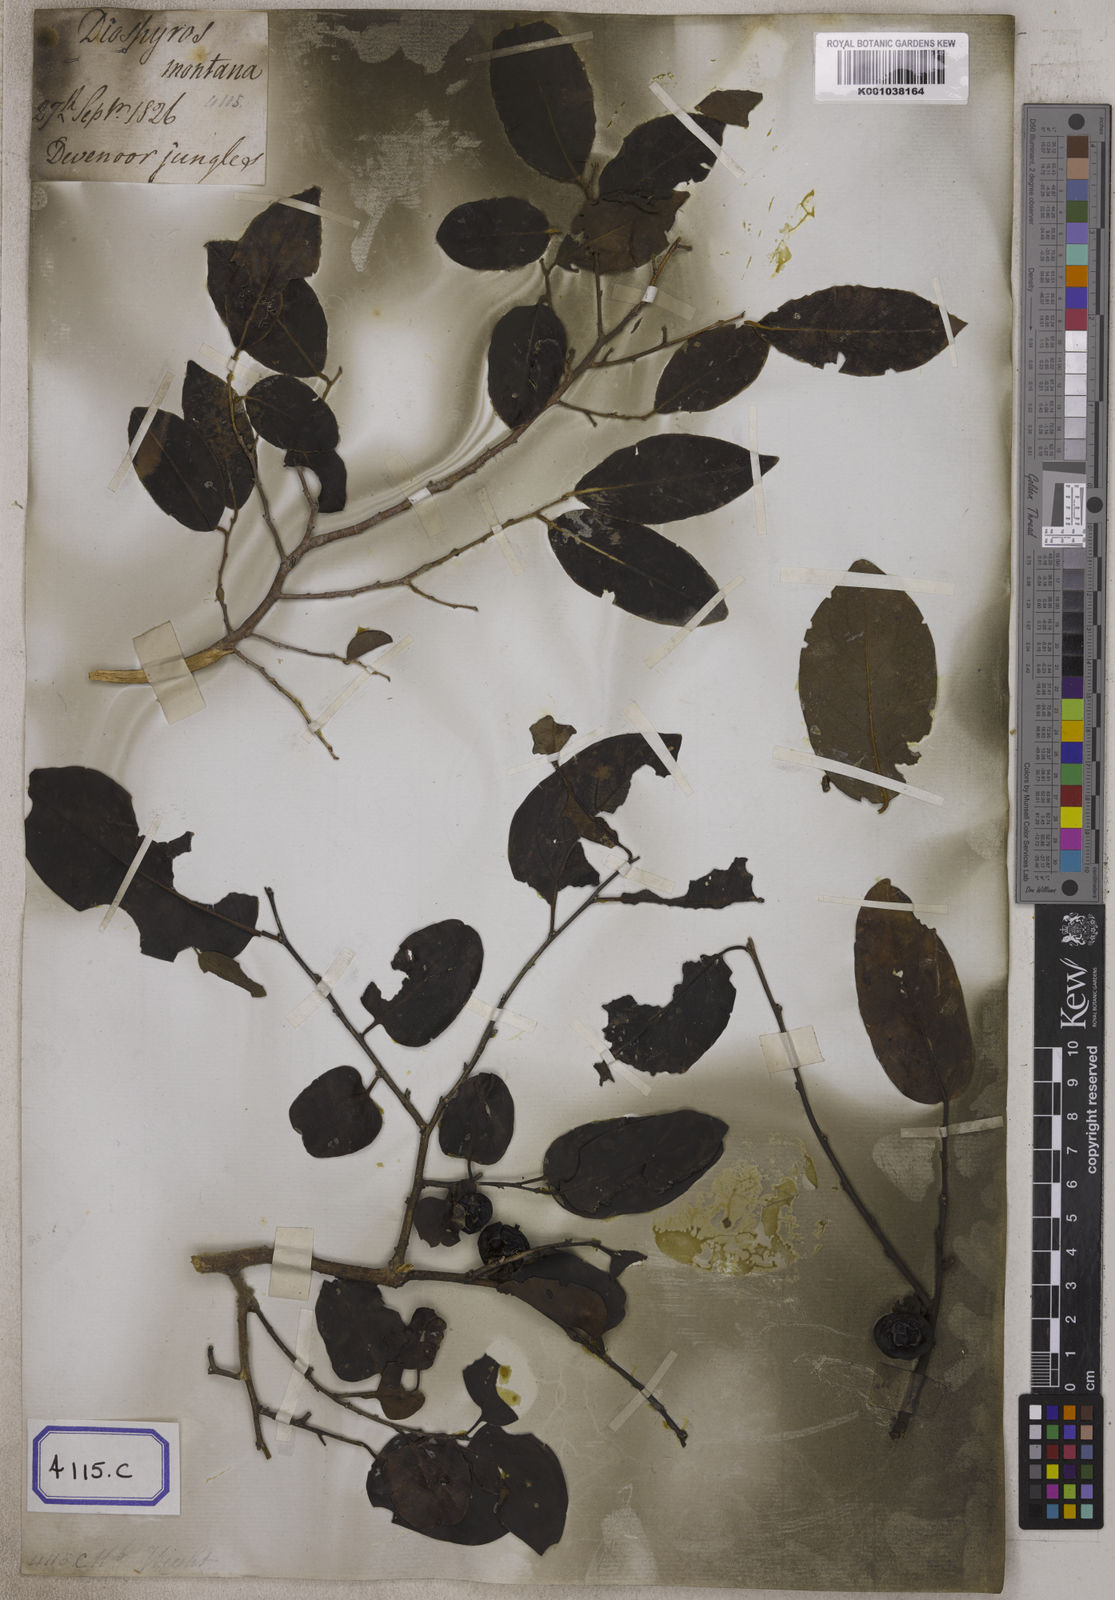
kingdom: Plantae
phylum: Tracheophyta
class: Magnoliopsida
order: Ericales
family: Ebenaceae
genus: Diospyros
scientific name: Diospyros
